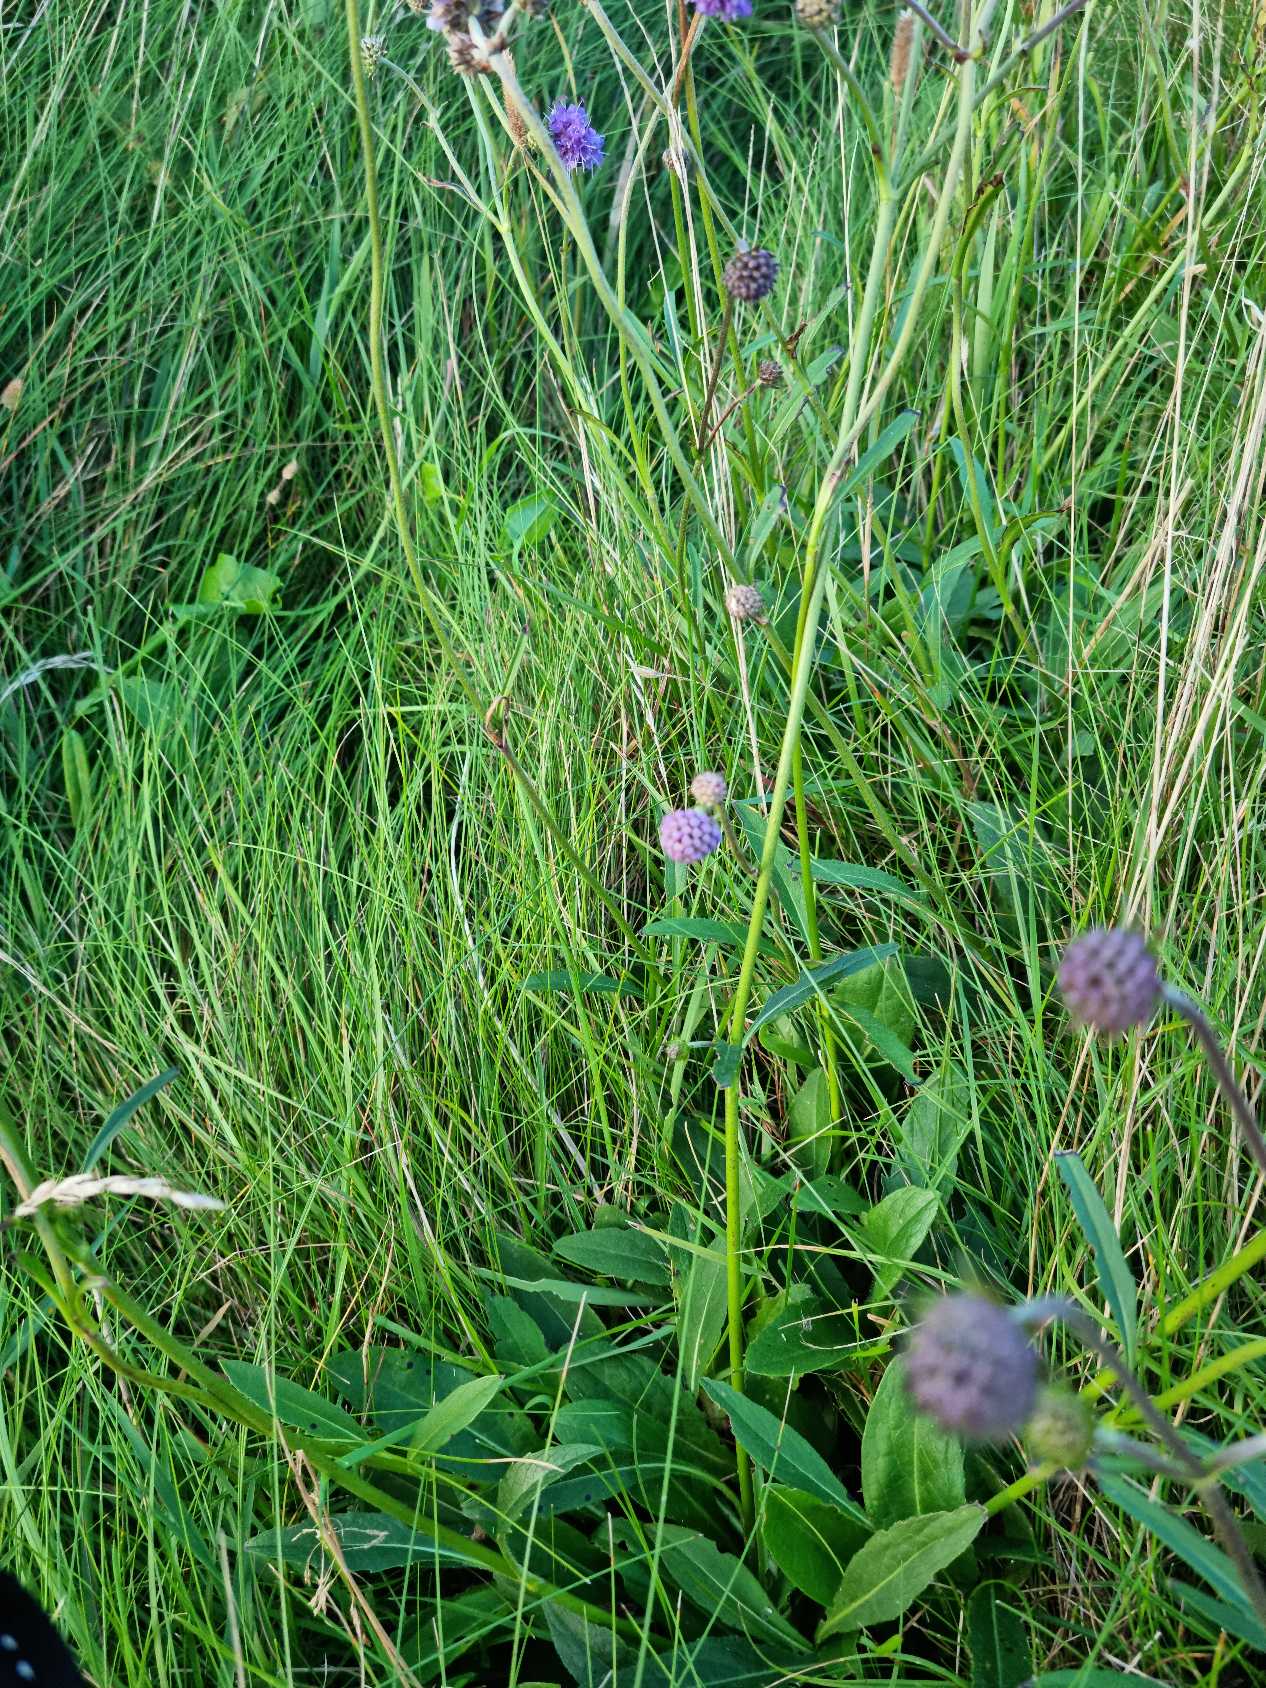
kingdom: Plantae
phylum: Tracheophyta
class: Magnoliopsida
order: Dipsacales
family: Caprifoliaceae
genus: Succisa
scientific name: Succisa pratensis
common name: Djævelsbid
